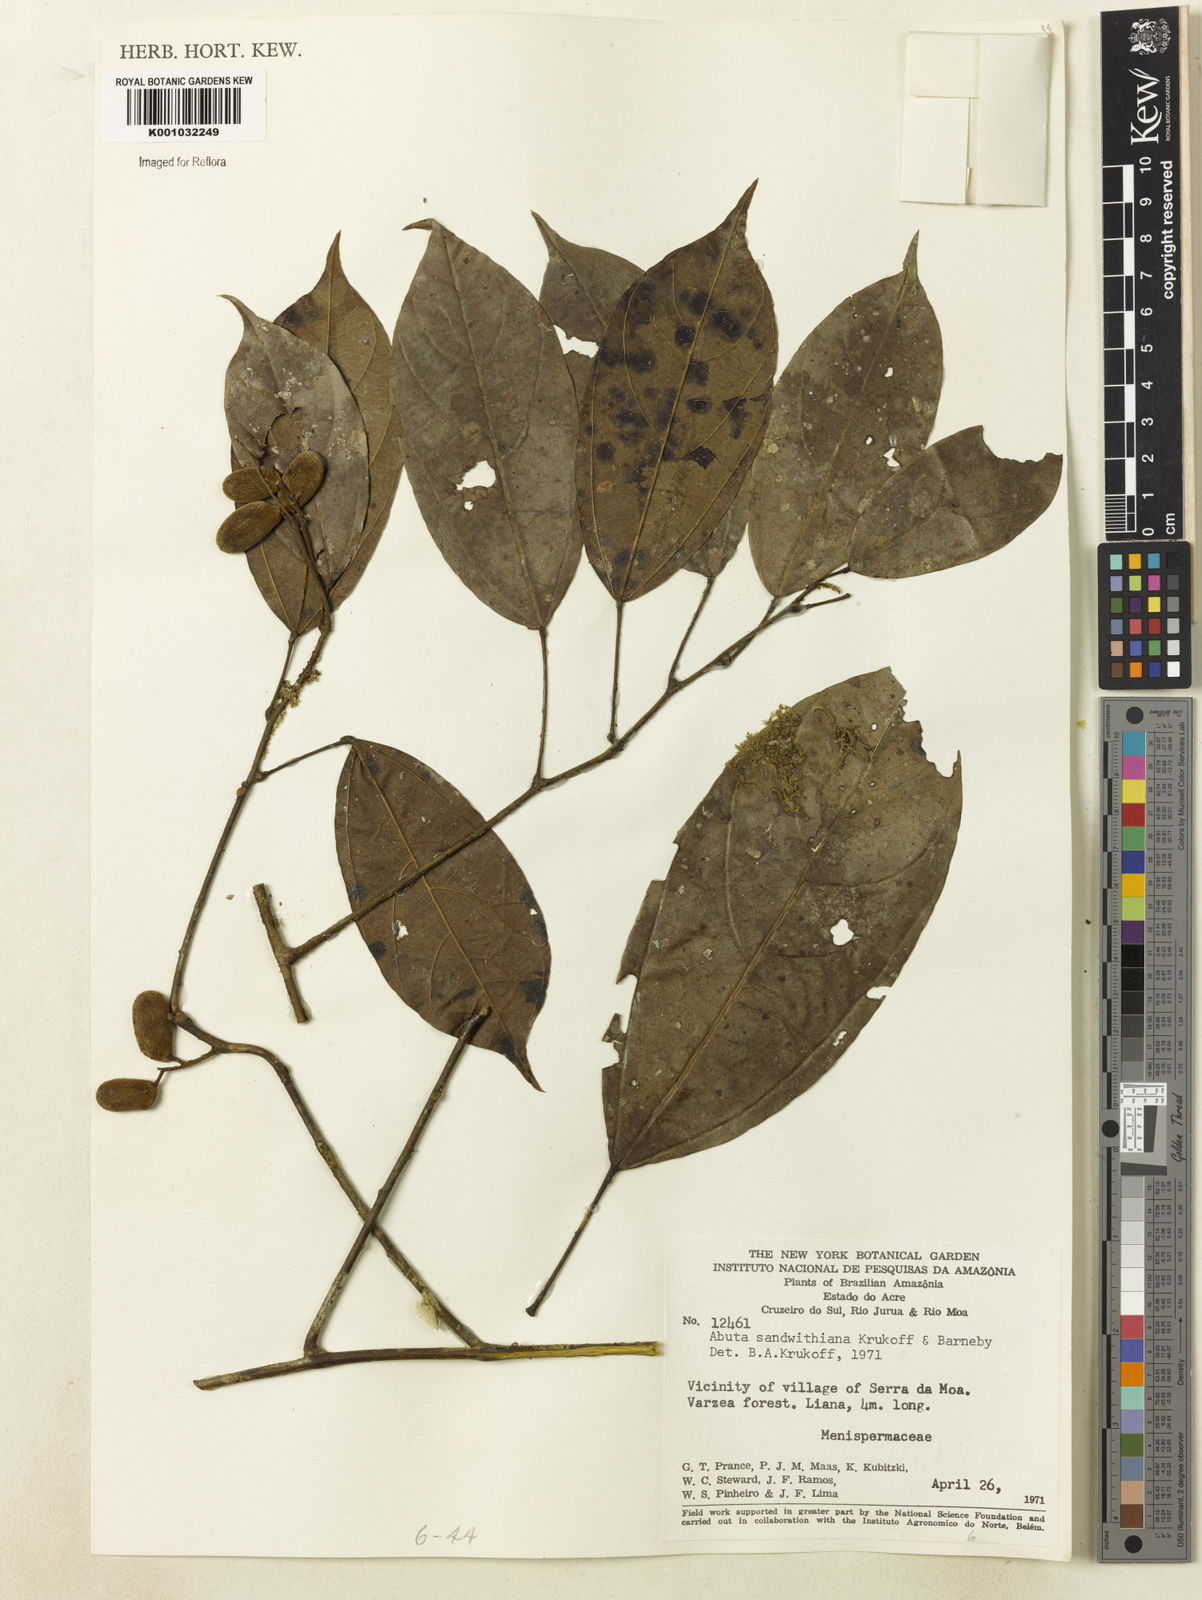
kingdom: Plantae
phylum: Tracheophyta
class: Magnoliopsida
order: Ranunculales
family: Menispermaceae
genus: Abuta
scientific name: Abuta sandwithiana
